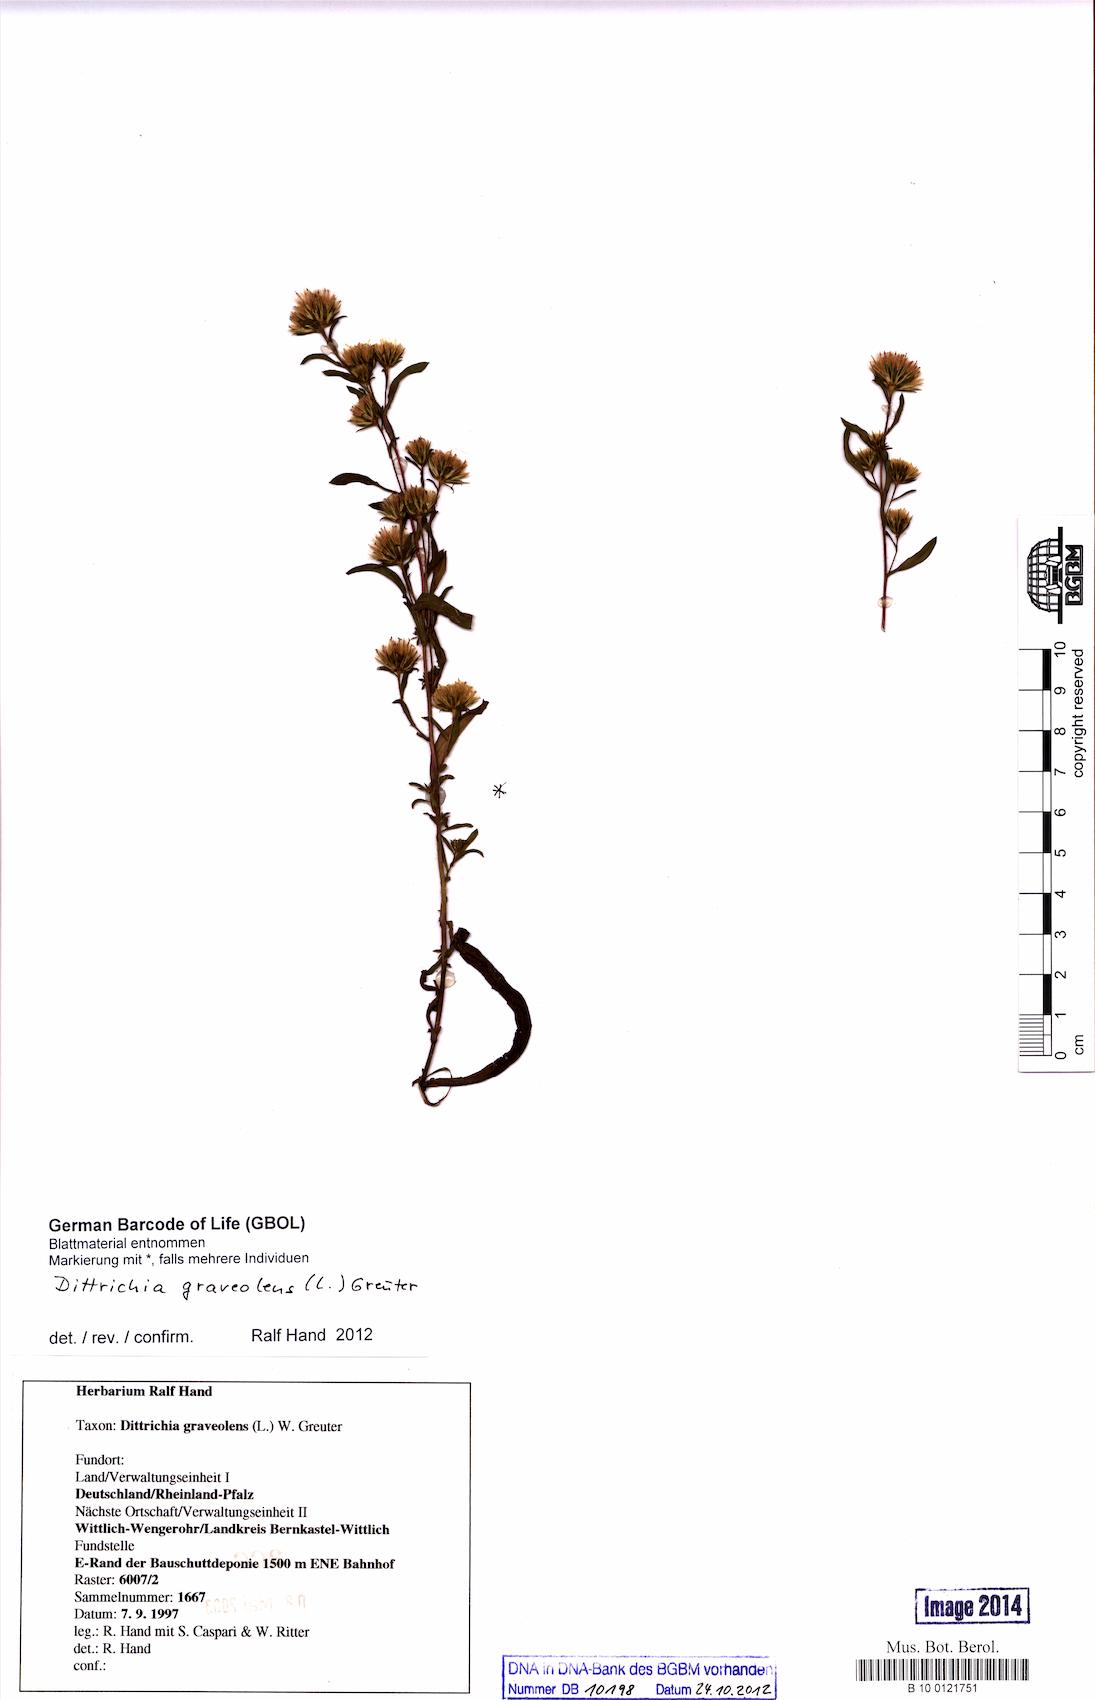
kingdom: Plantae
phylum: Tracheophyta
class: Magnoliopsida
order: Asterales
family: Asteraceae
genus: Dittrichia
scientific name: Dittrichia graveolens
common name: Stinking fleabane
